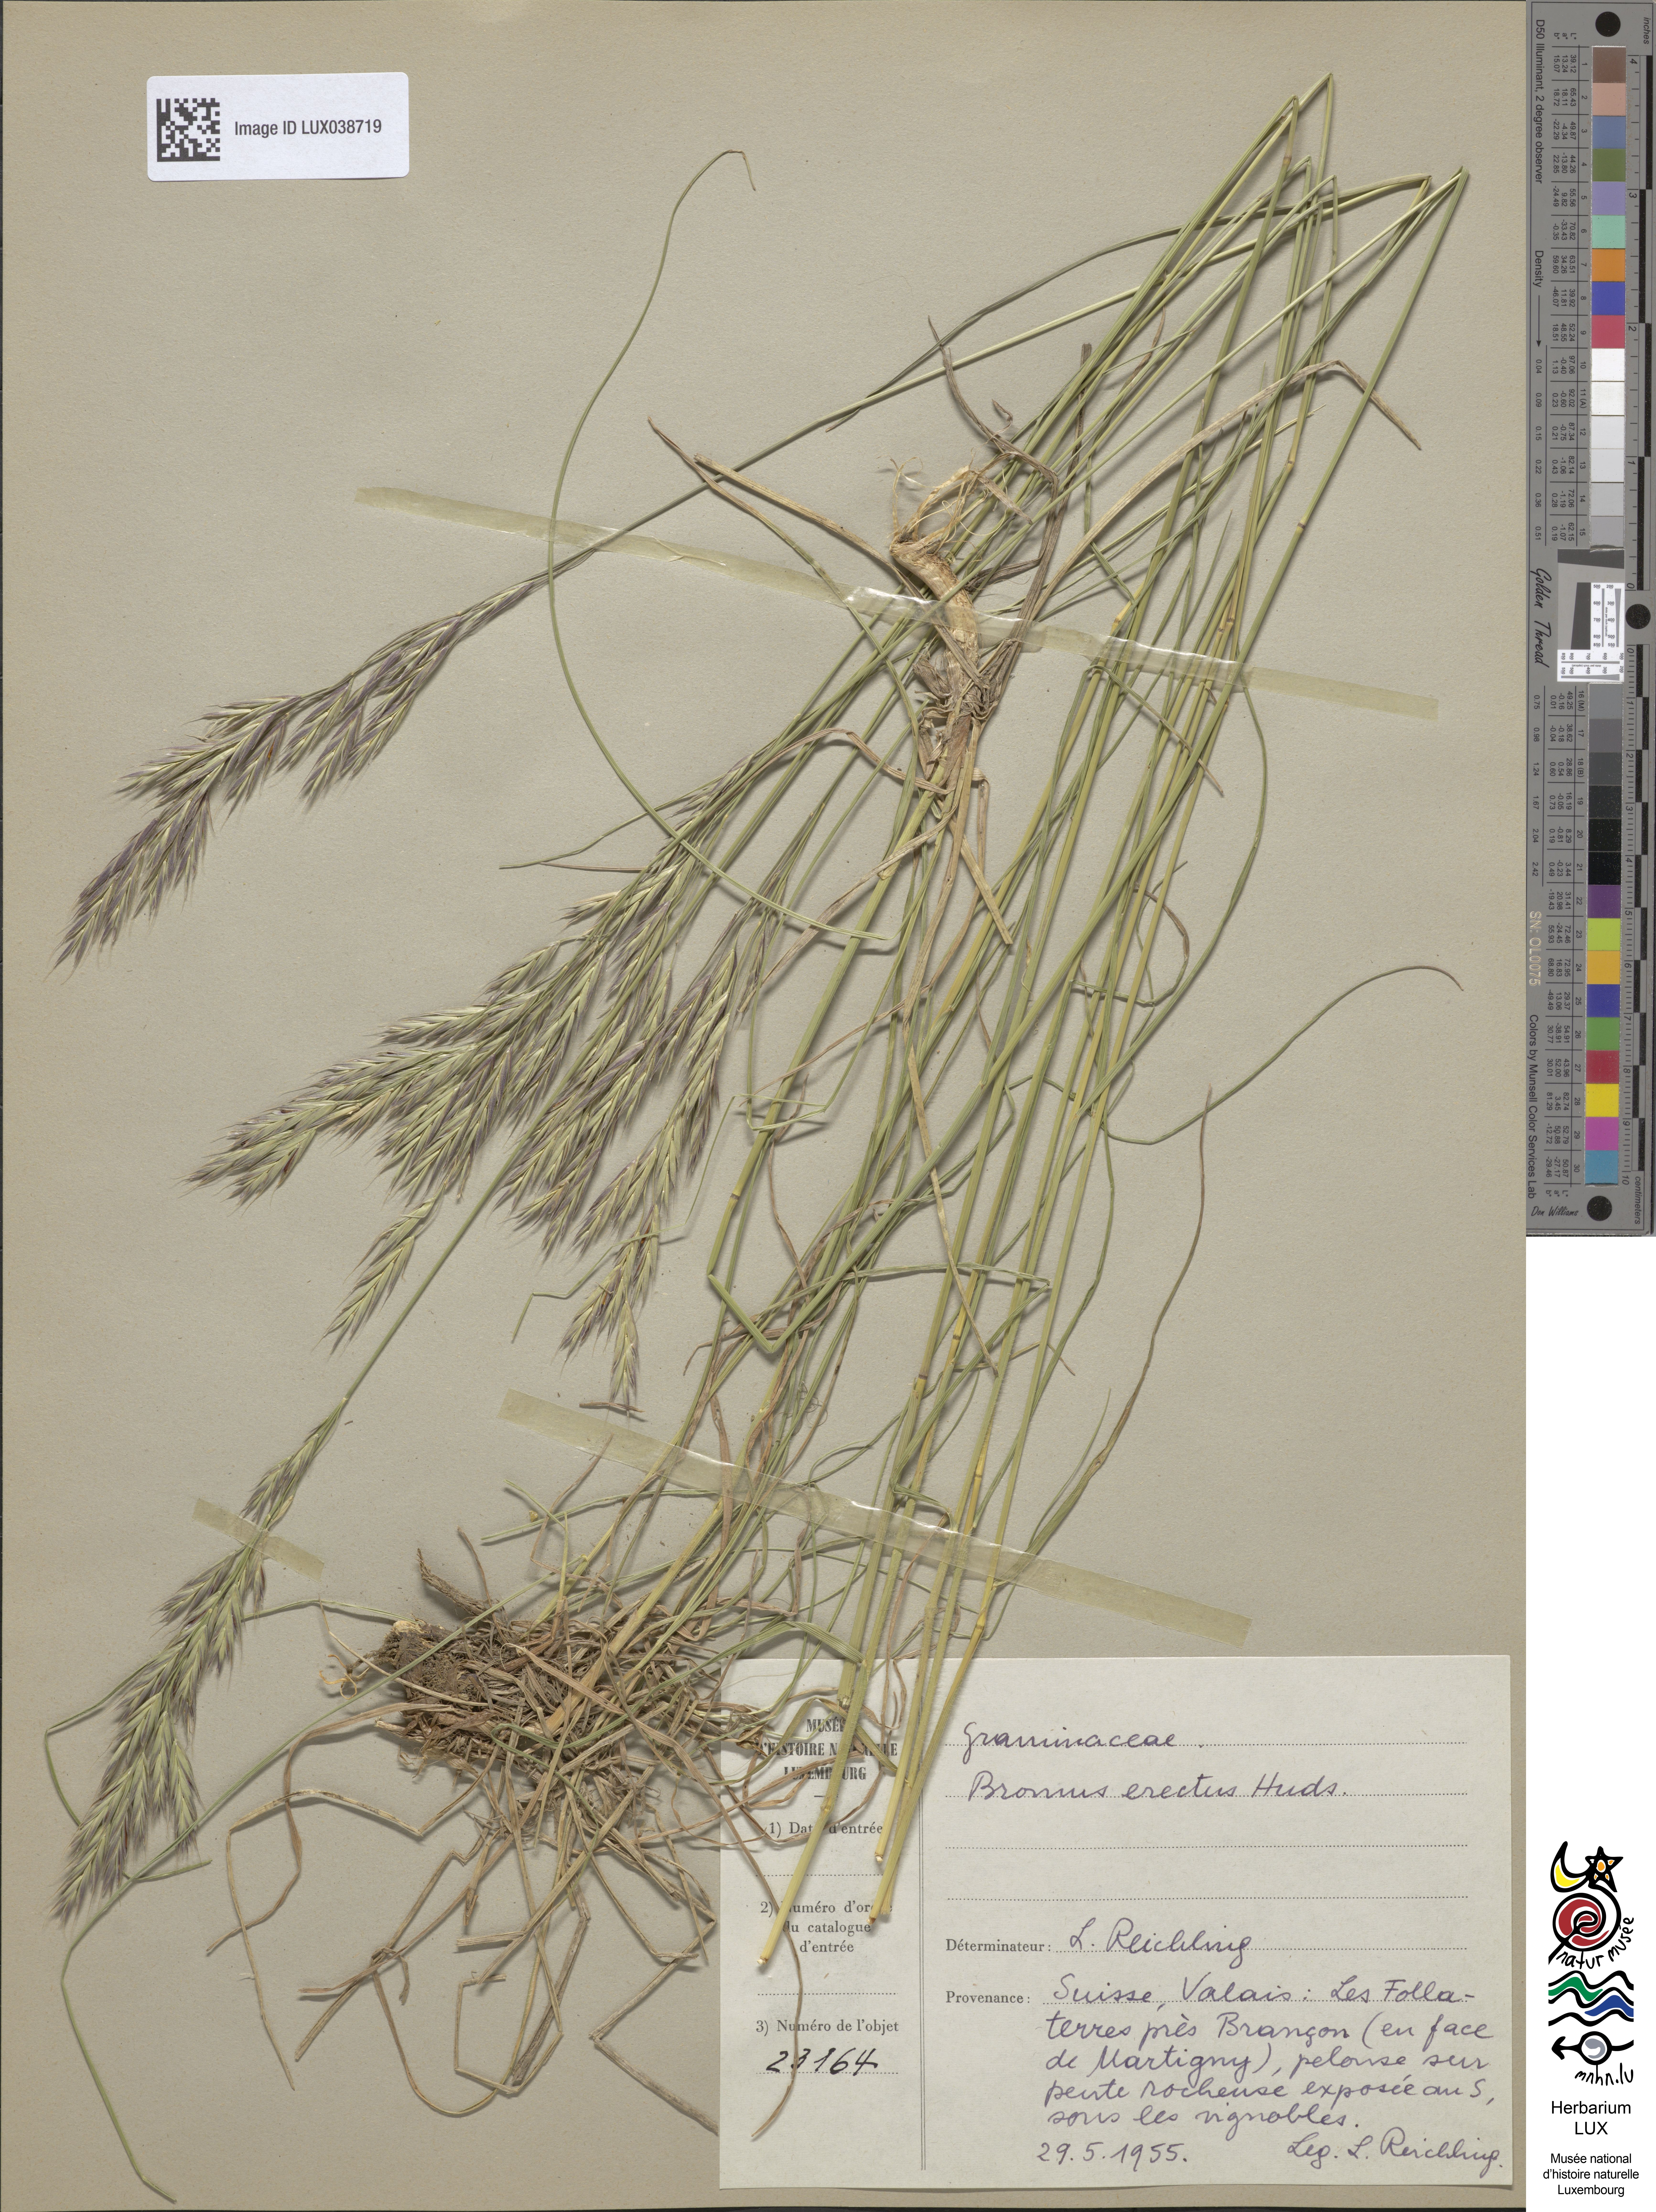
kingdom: Plantae
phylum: Tracheophyta
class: Liliopsida
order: Poales
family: Poaceae
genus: Bromus
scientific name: Bromus erectus
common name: Erect brome
